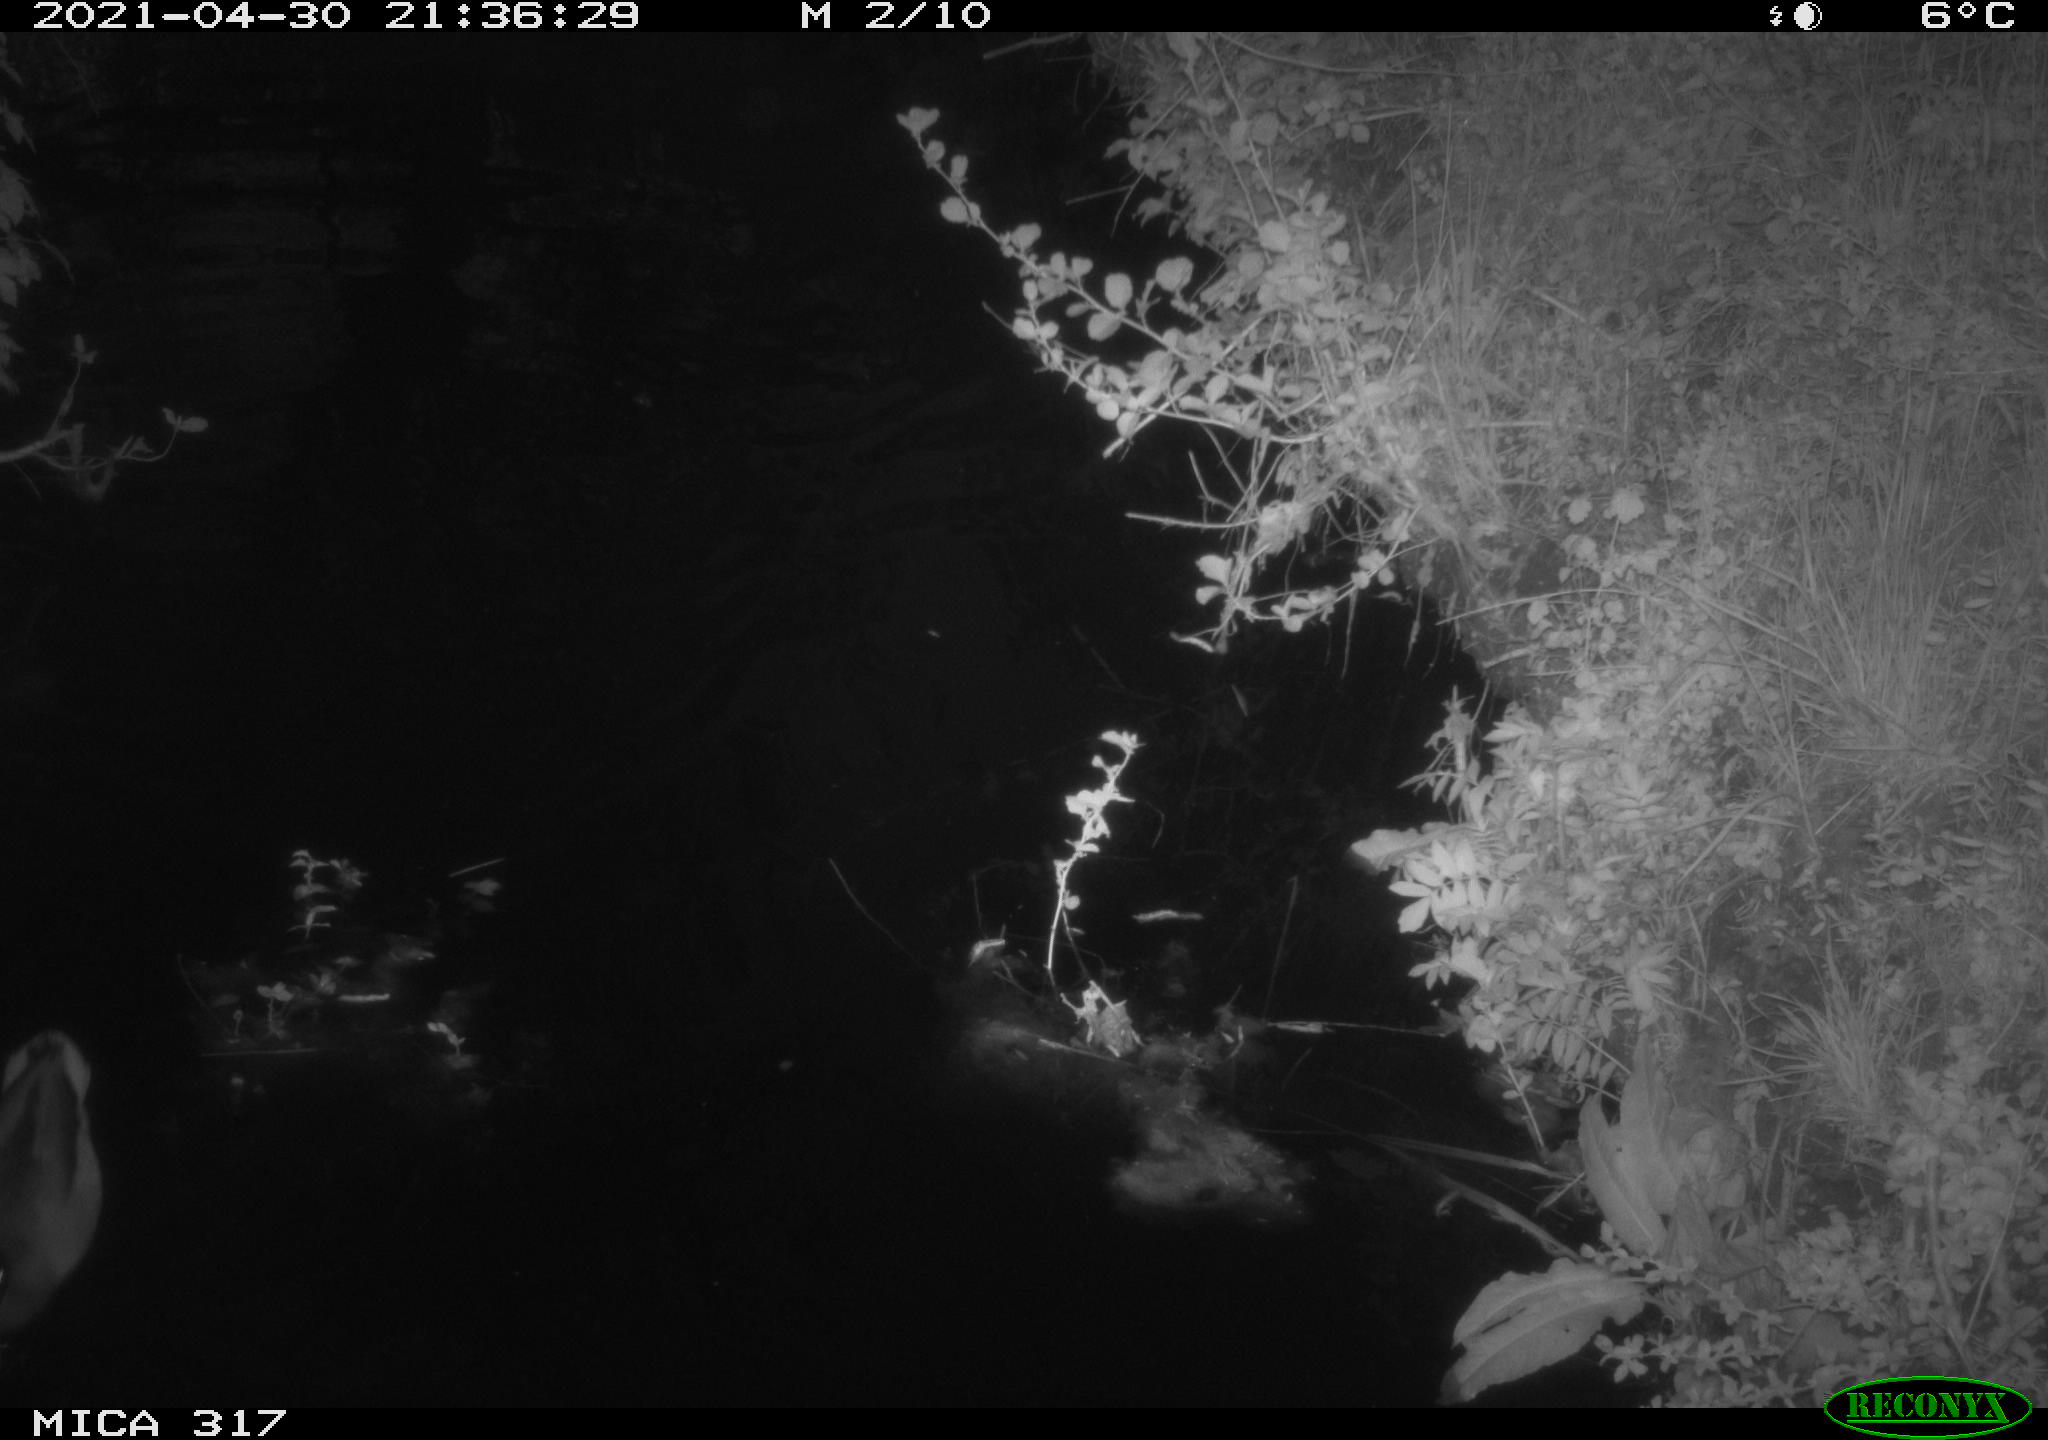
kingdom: Animalia
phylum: Chordata
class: Aves
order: Anseriformes
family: Anatidae
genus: Anas
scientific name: Anas
